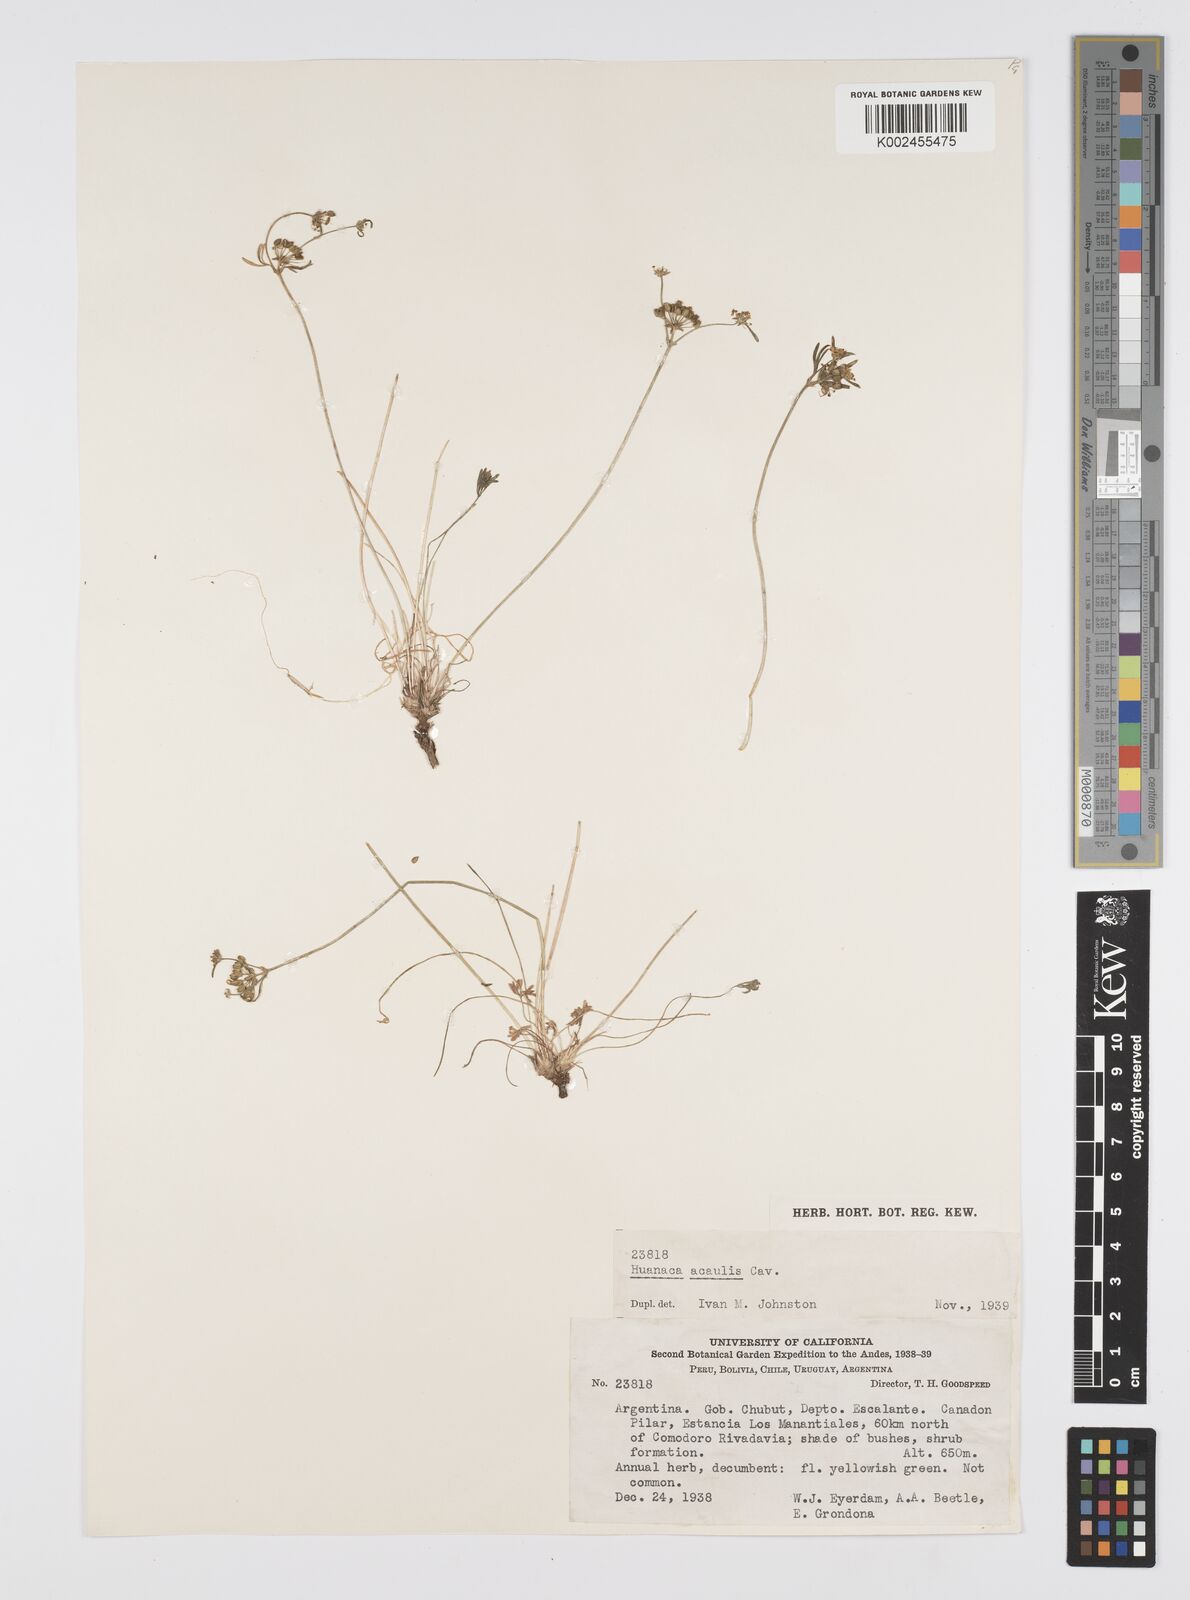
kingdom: Plantae
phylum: Tracheophyta
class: Magnoliopsida
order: Apiales
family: Apiaceae
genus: Azorella
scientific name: Azorella acaulis
